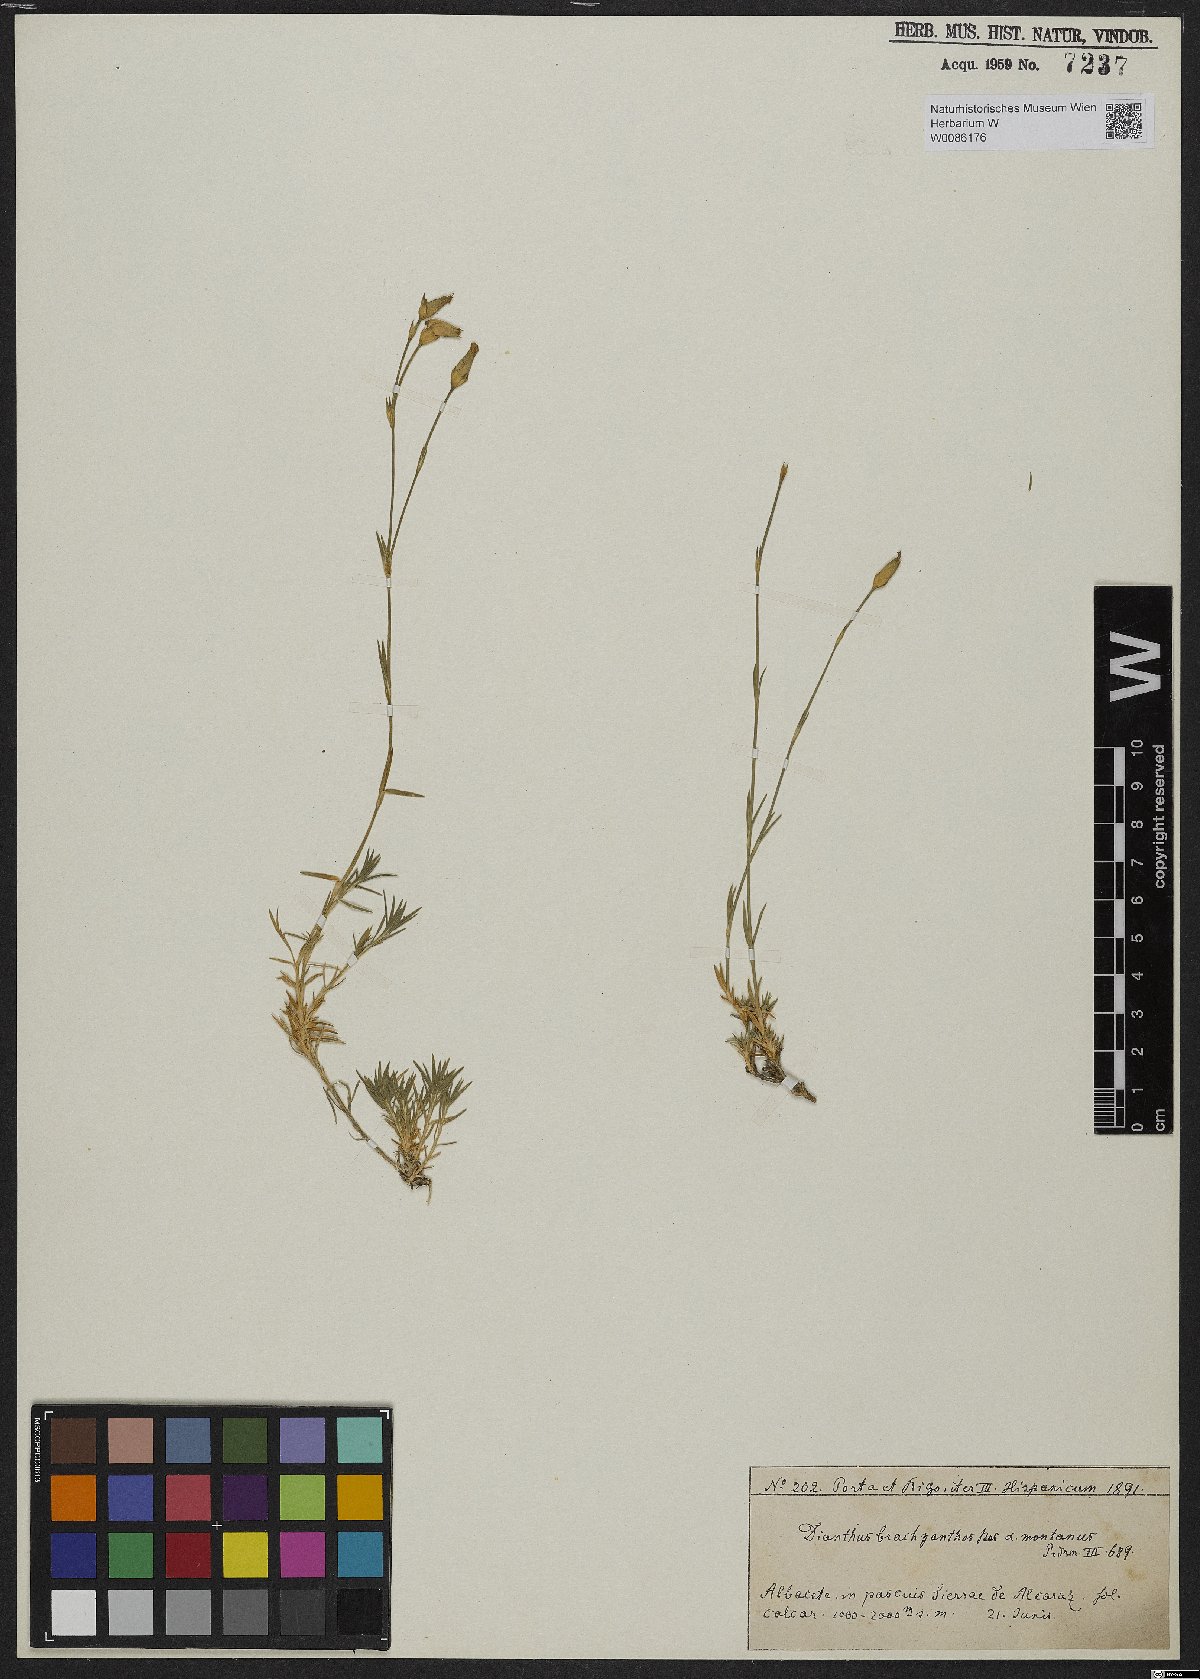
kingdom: Plantae
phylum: Tracheophyta
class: Magnoliopsida
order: Caryophyllales
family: Caryophyllaceae
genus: Dianthus
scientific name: Dianthus subacaulis
